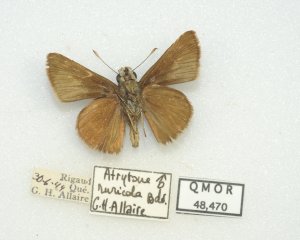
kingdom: Animalia
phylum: Arthropoda
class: Insecta
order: Lepidoptera
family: Hesperiidae
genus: Euphyes
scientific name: Euphyes vestris
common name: Dun Skipper
